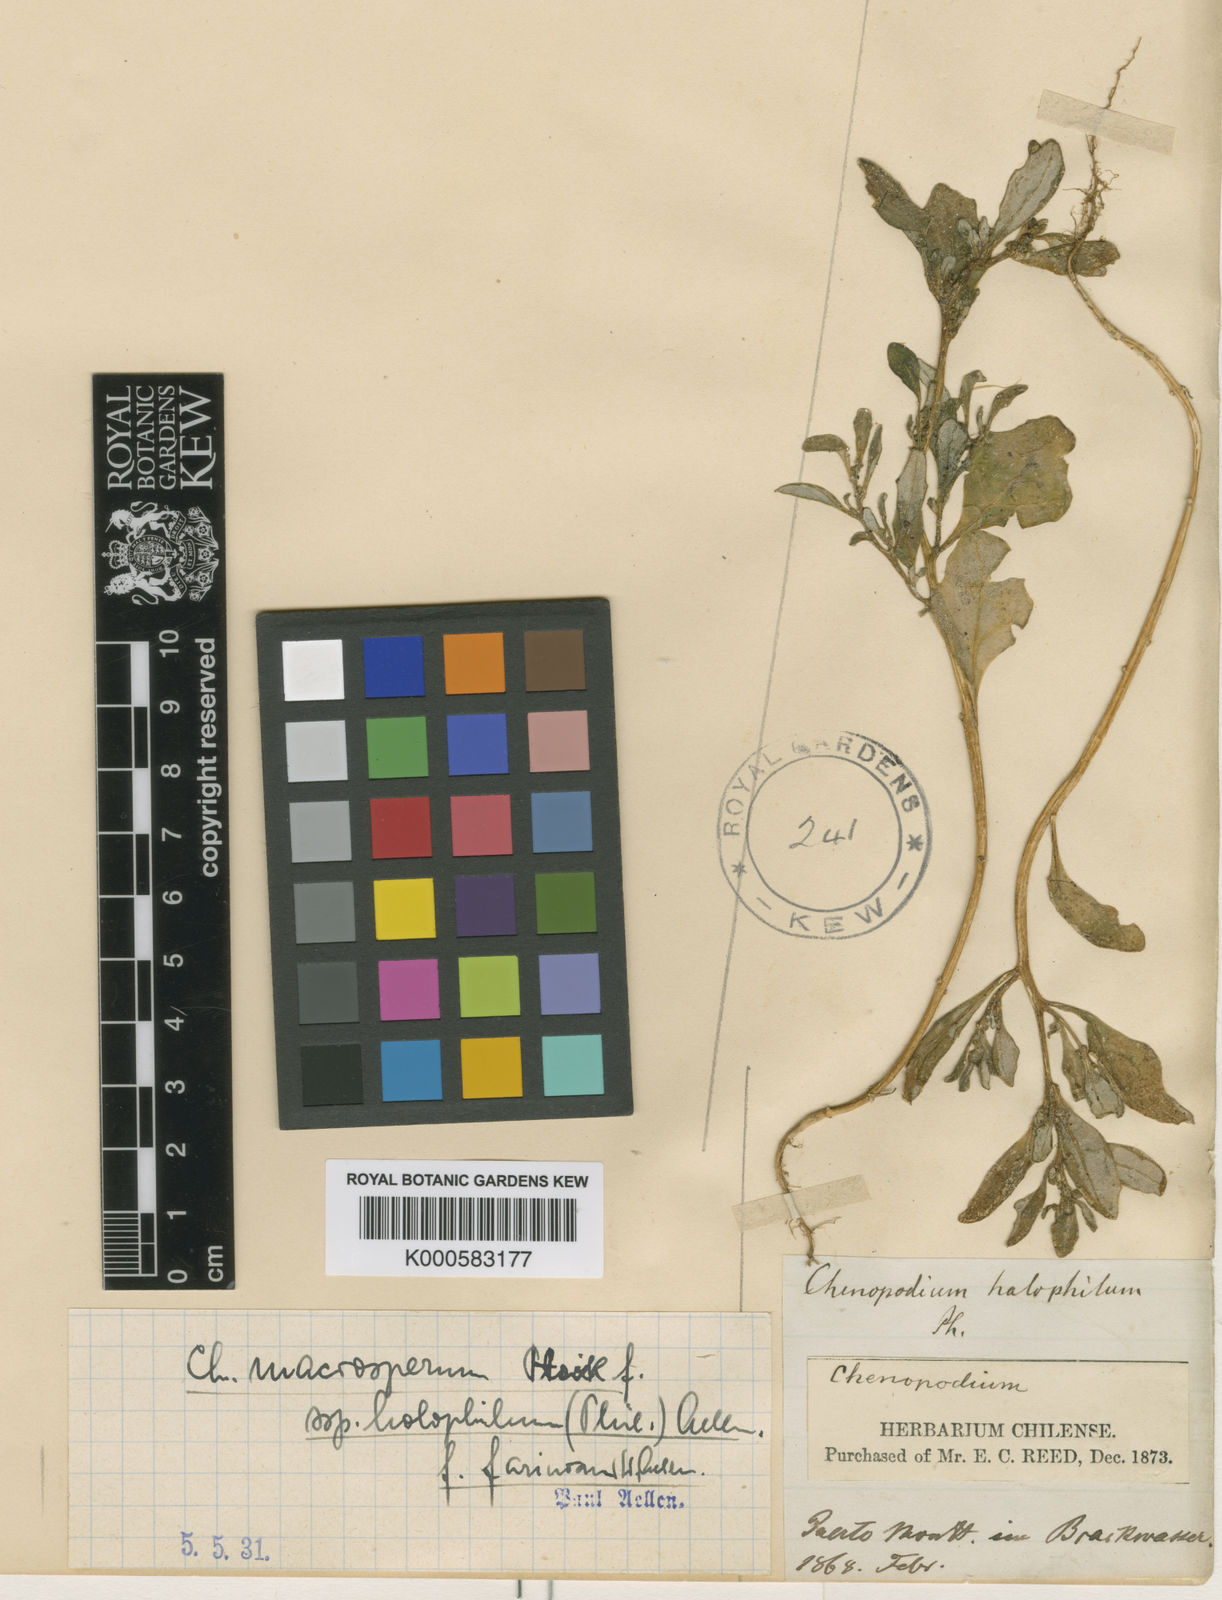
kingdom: Plantae
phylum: Tracheophyta
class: Magnoliopsida
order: Caryophyllales
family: Amaranthaceae
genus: Oxybasis
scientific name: Oxybasis macrosperma
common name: Large-seed goosefoot
